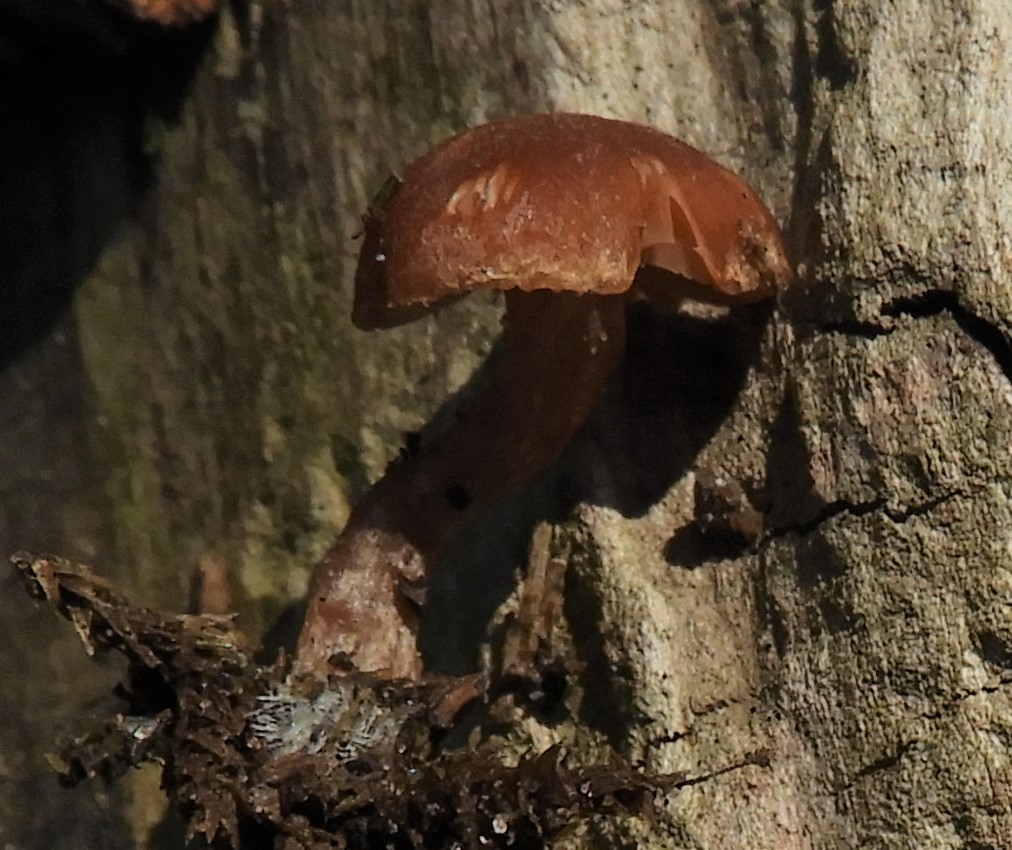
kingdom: Fungi
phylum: Basidiomycota
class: Agaricomycetes
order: Agaricales
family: Tubariaceae
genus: Tubaria
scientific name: Tubaria furfuracea
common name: kliddet fnughat
